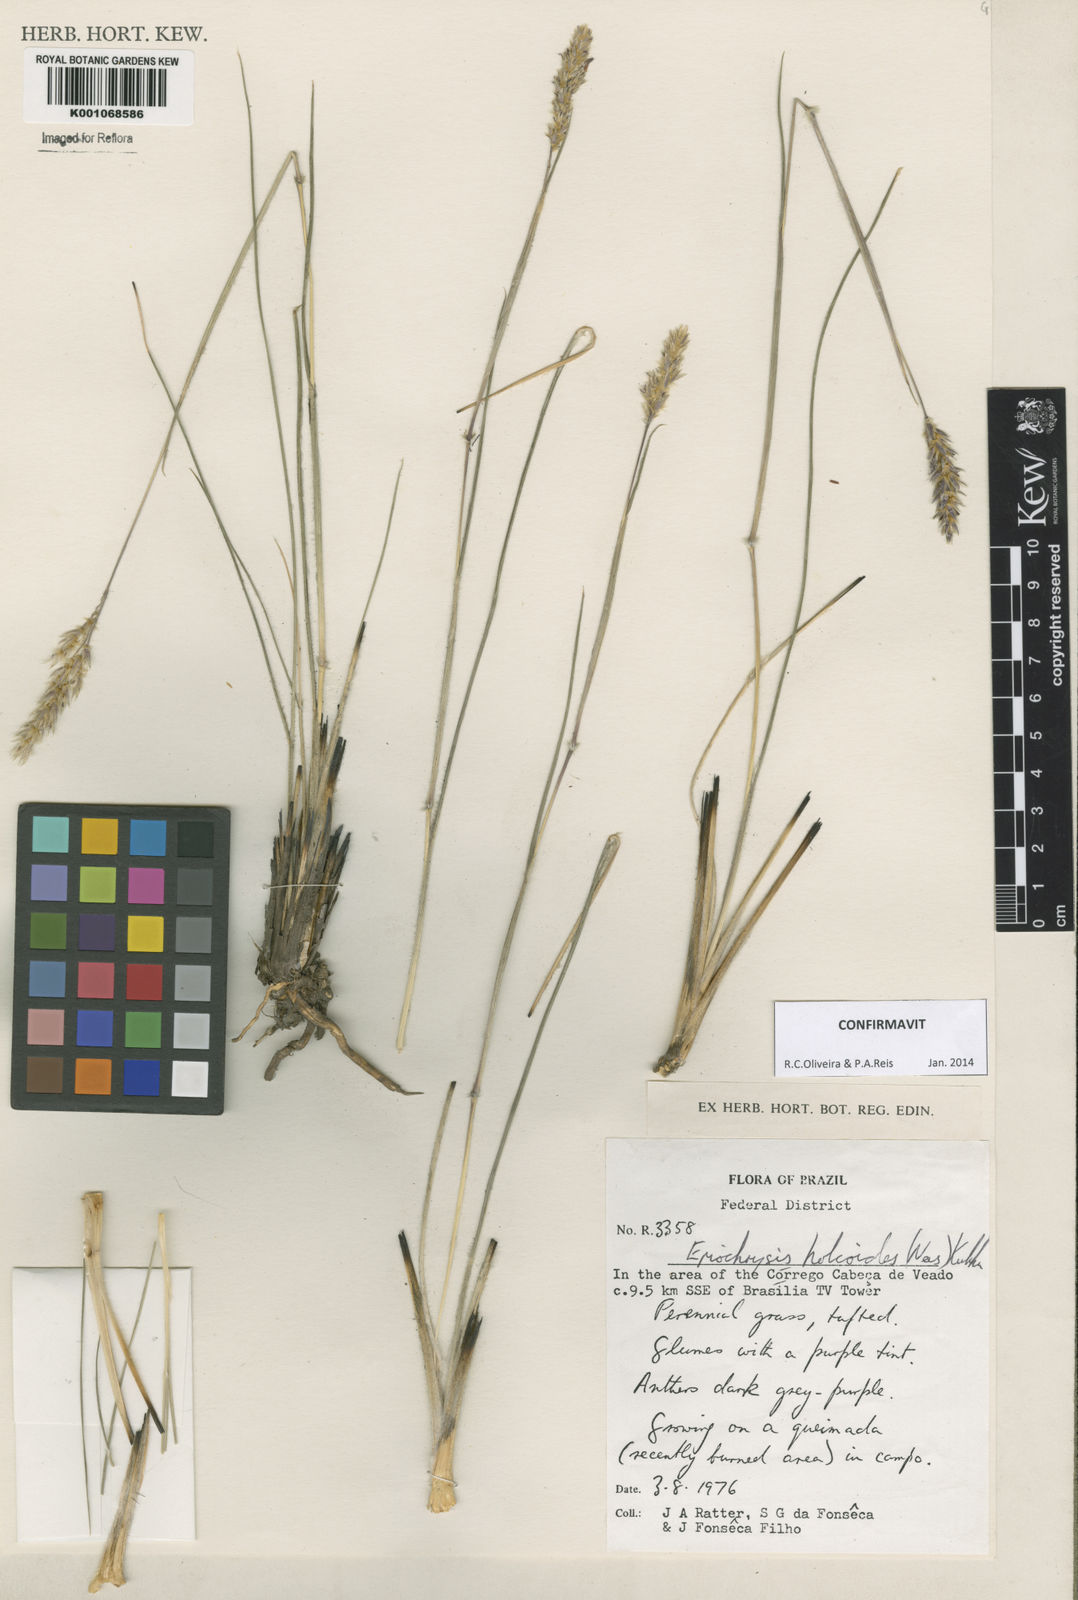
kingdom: Plantae
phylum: Tracheophyta
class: Liliopsida
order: Poales
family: Poaceae
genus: Eriochrysis
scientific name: Eriochrysis holcoides
